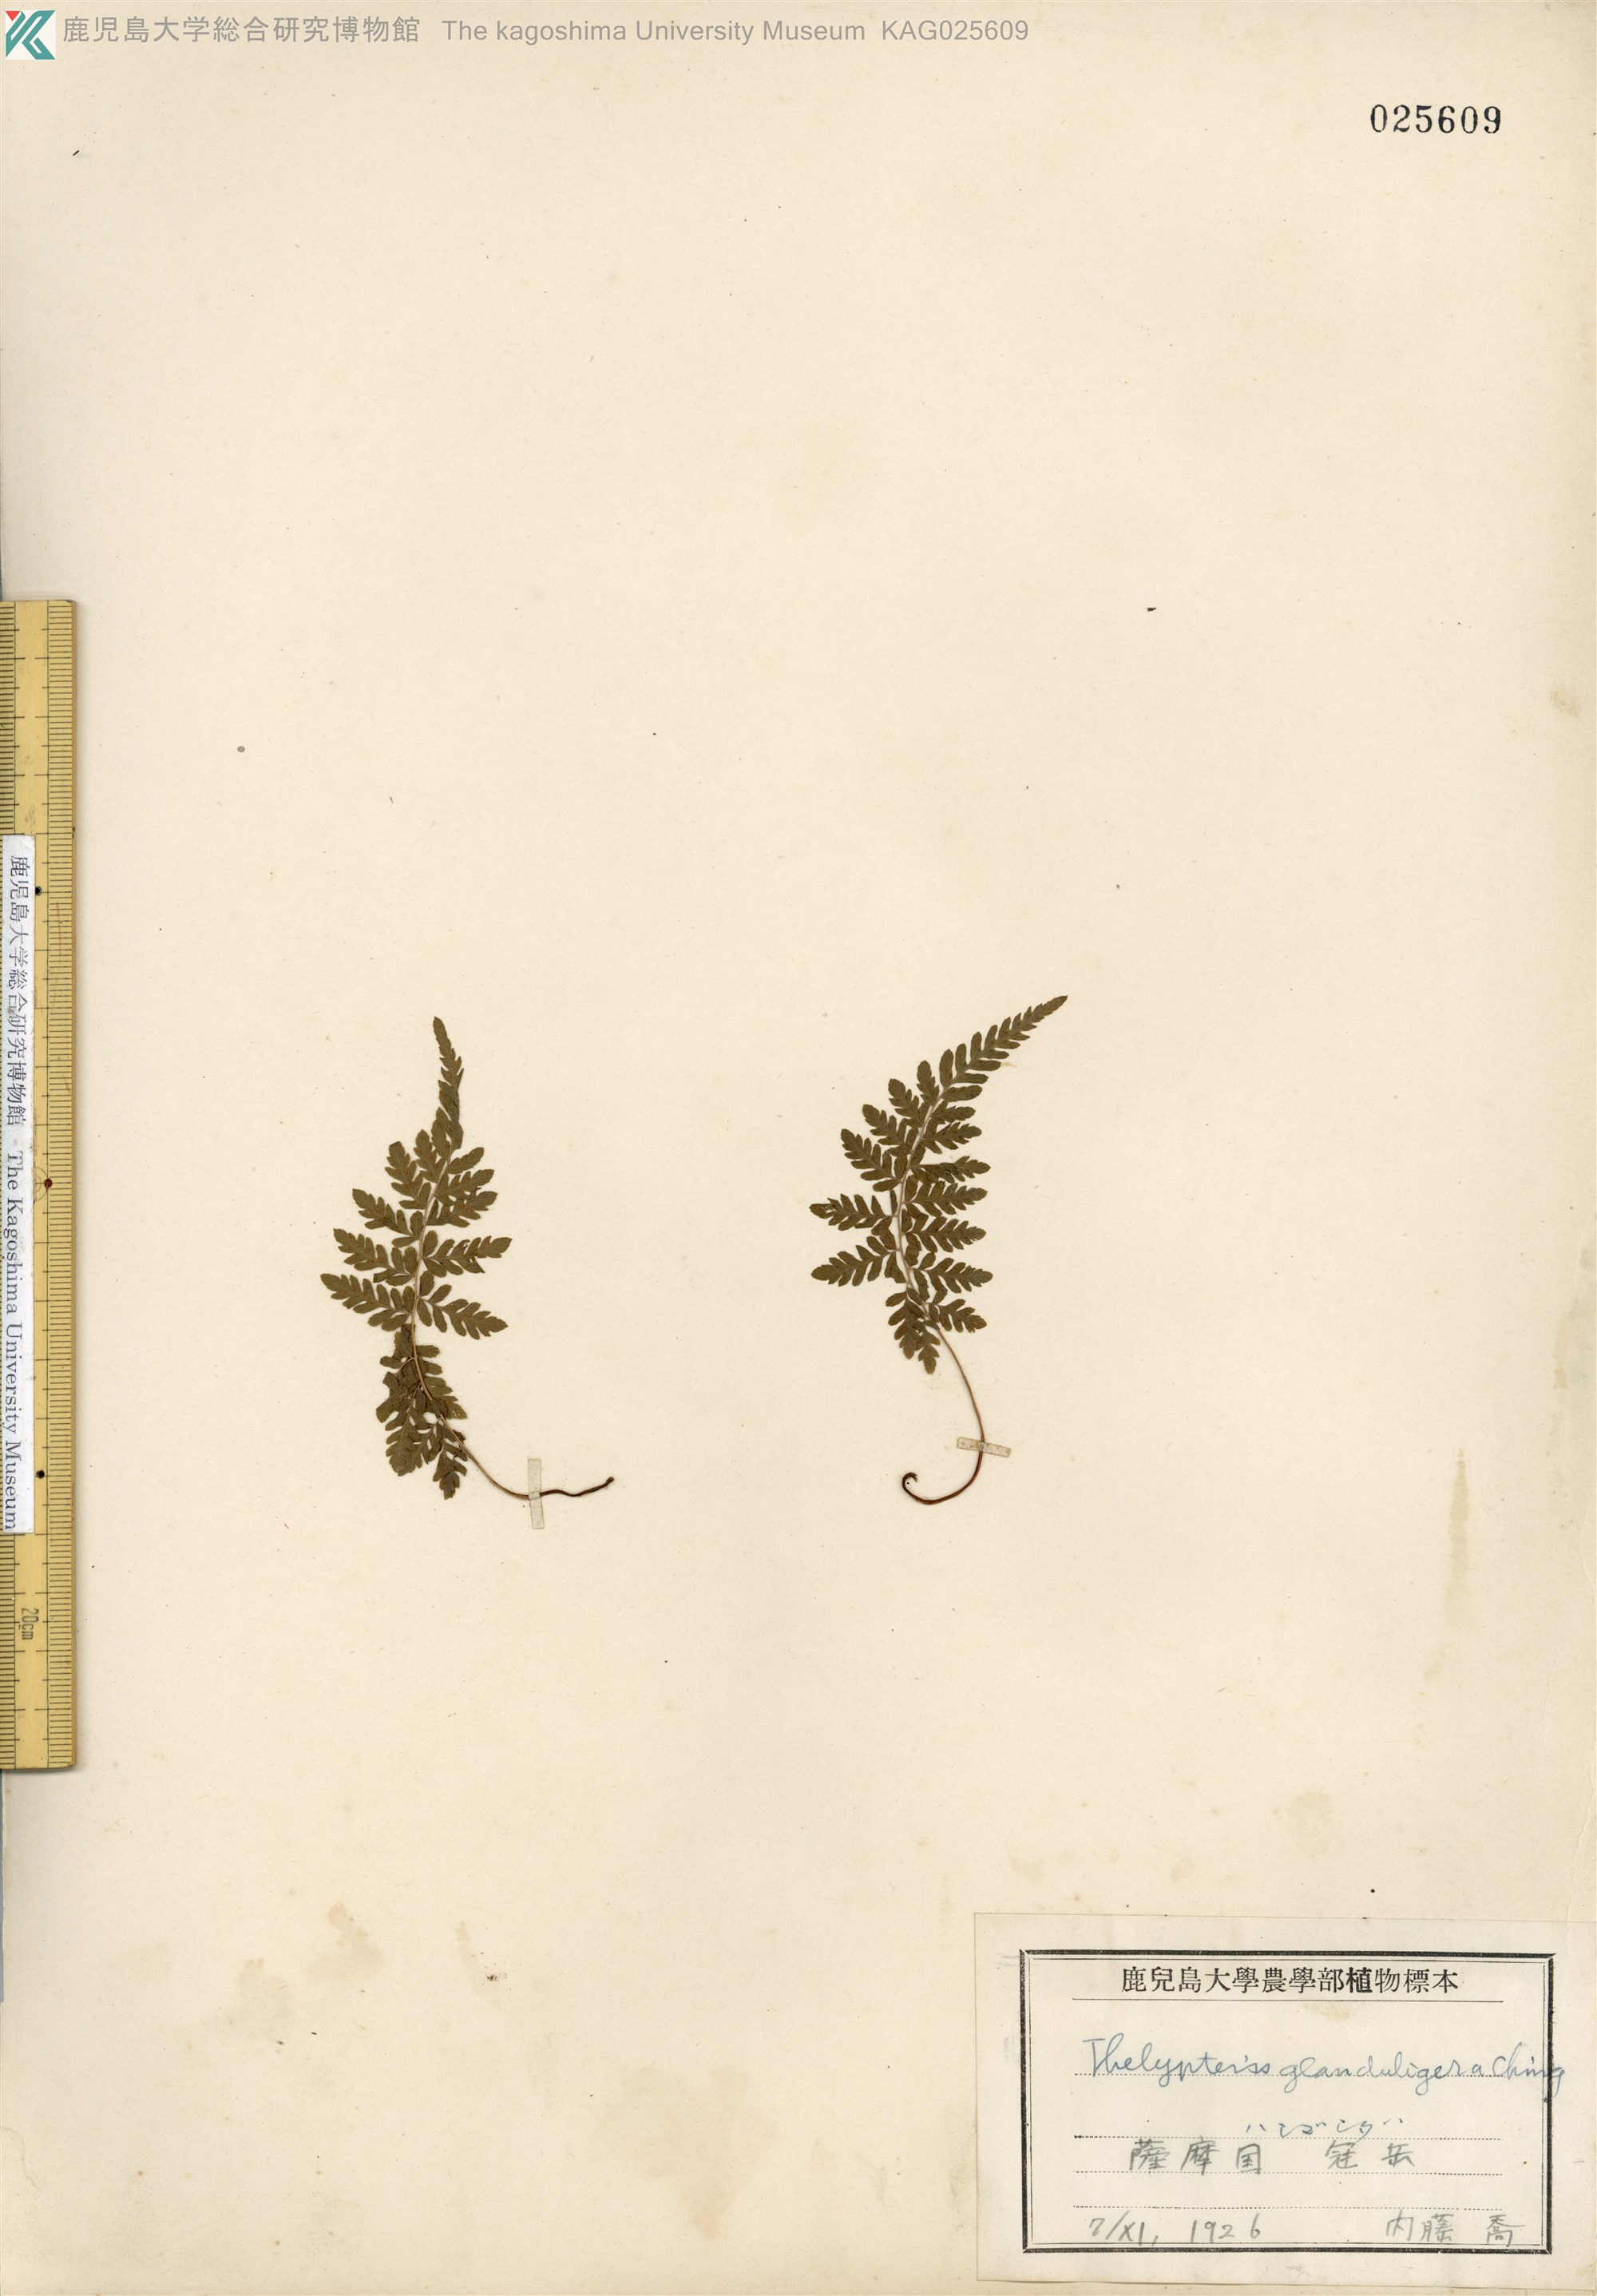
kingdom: Plantae
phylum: Tracheophyta
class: Polypodiopsida
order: Polypodiales
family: Thelypteridaceae
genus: Amauropelta
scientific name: Amauropelta angustifrons
